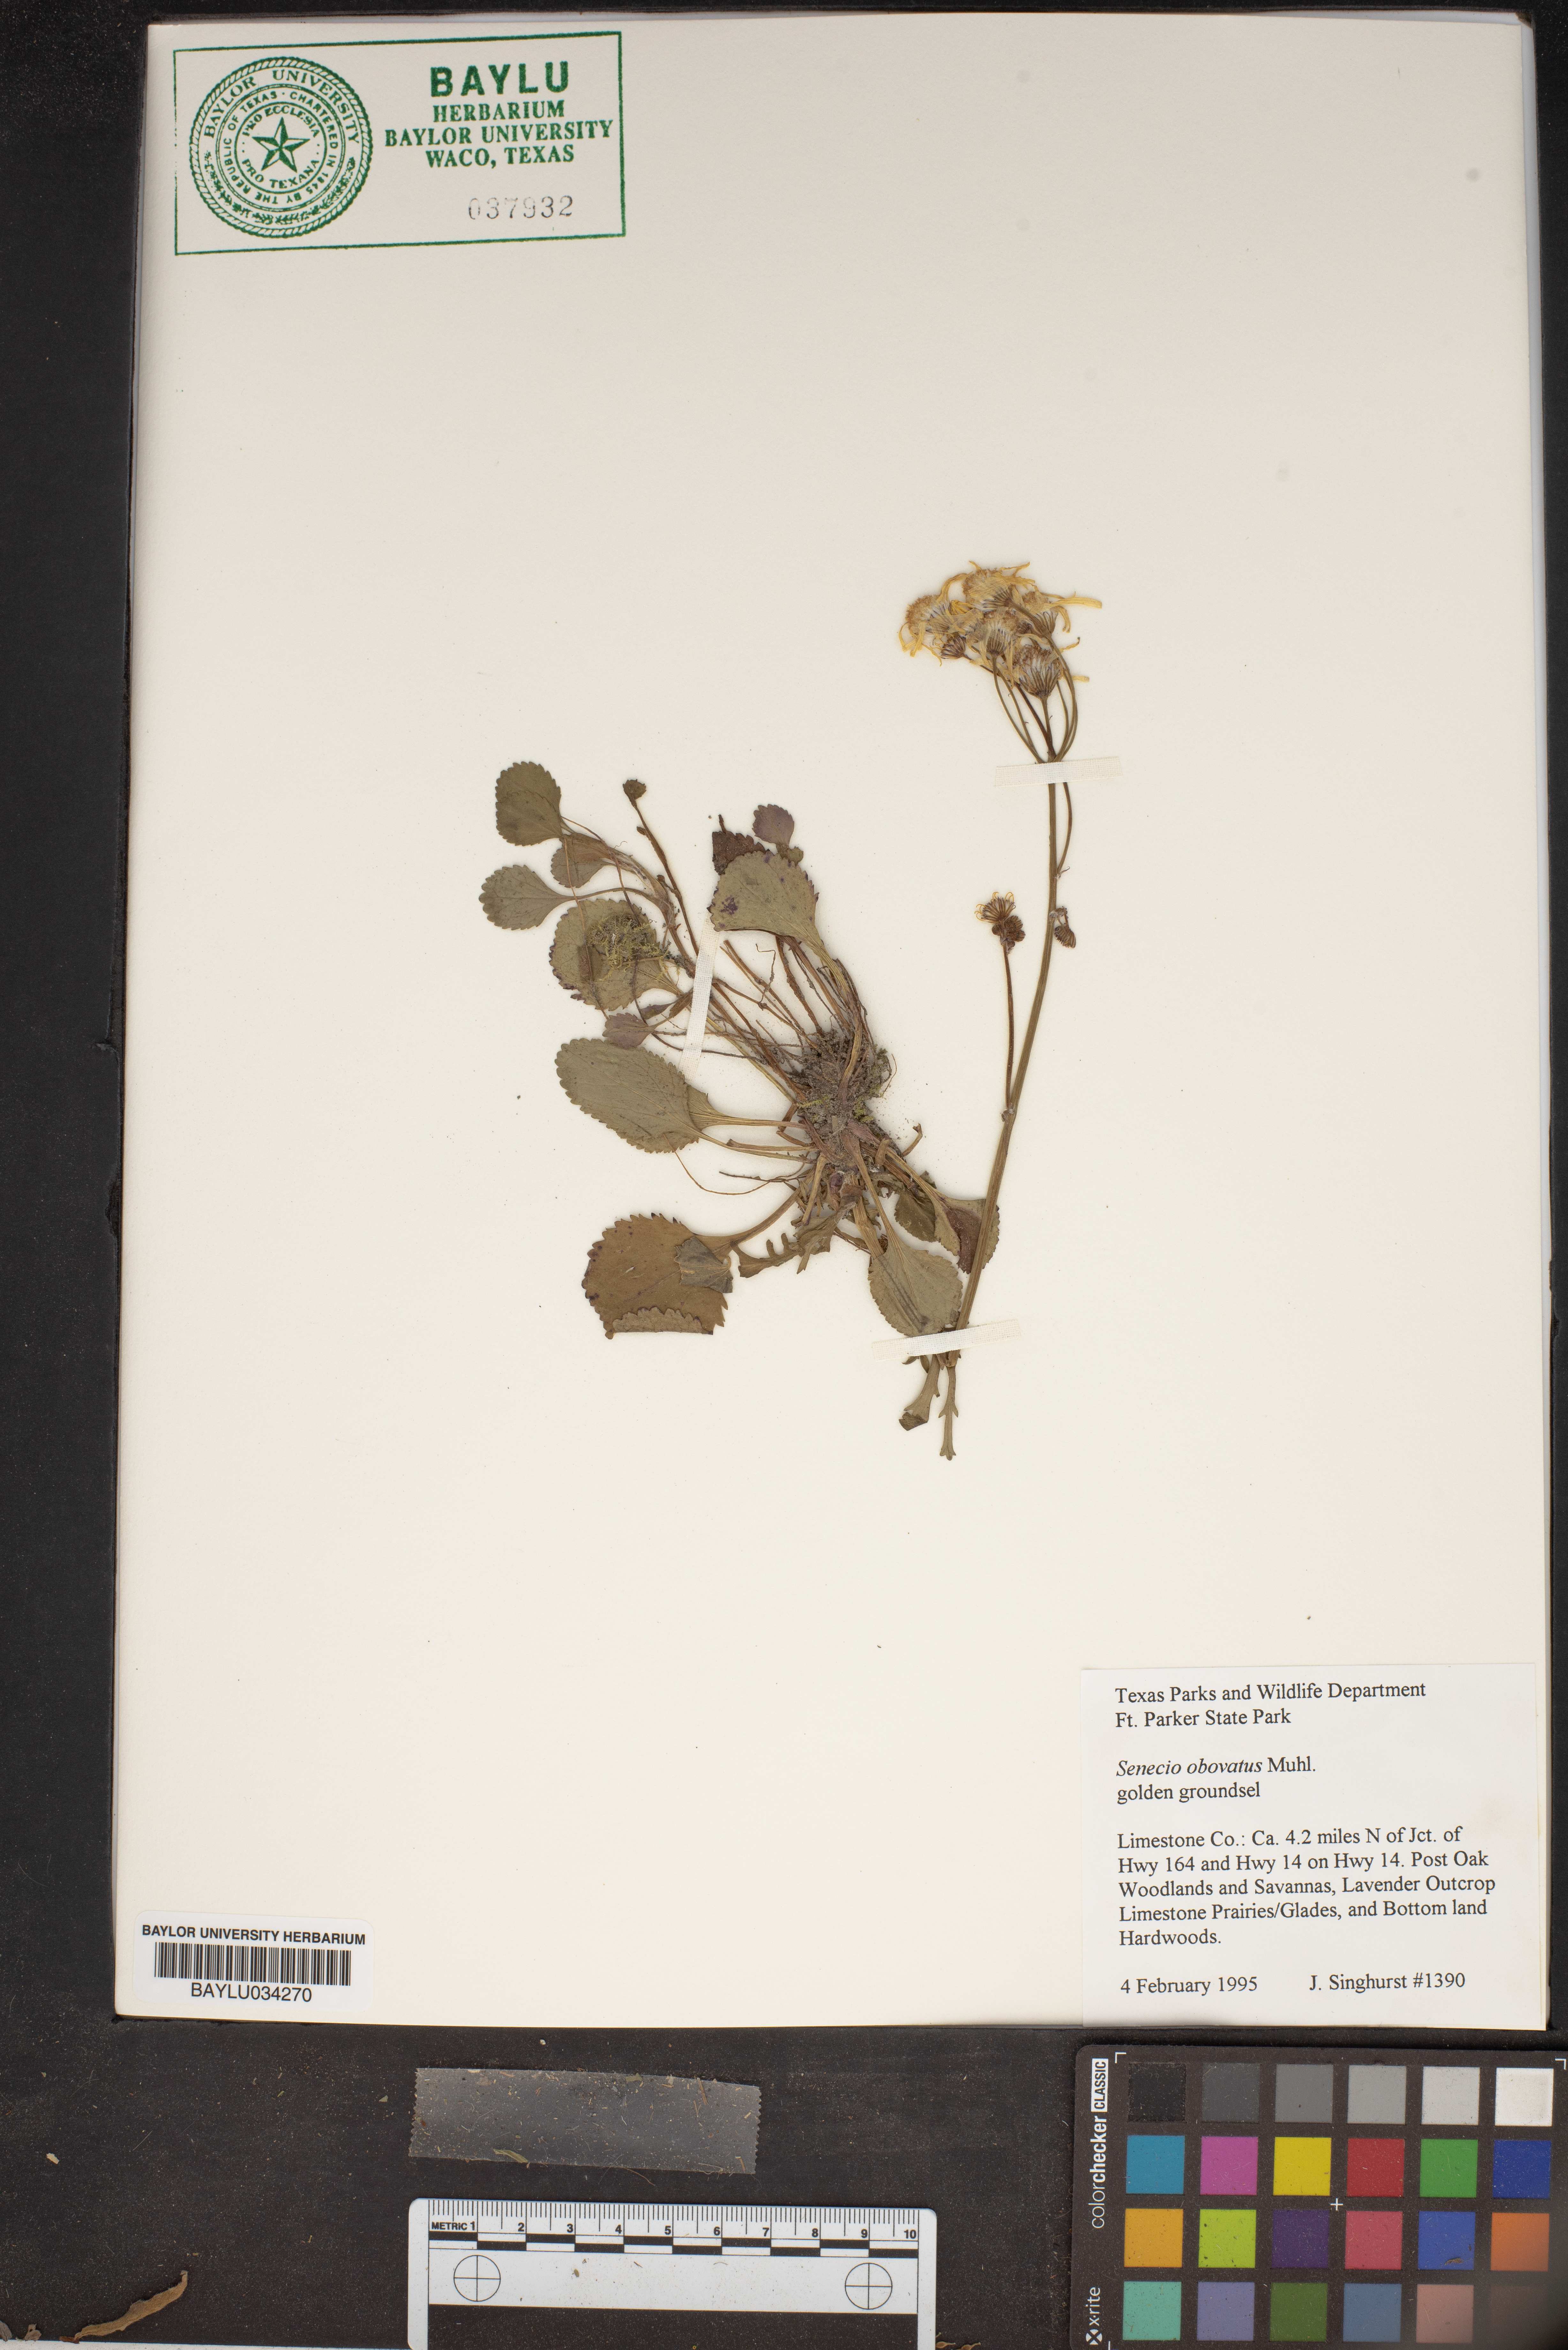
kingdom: Plantae
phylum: Tracheophyta
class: Magnoliopsida
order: Asterales
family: Asteraceae
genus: Senecio
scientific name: Senecio provincialis
